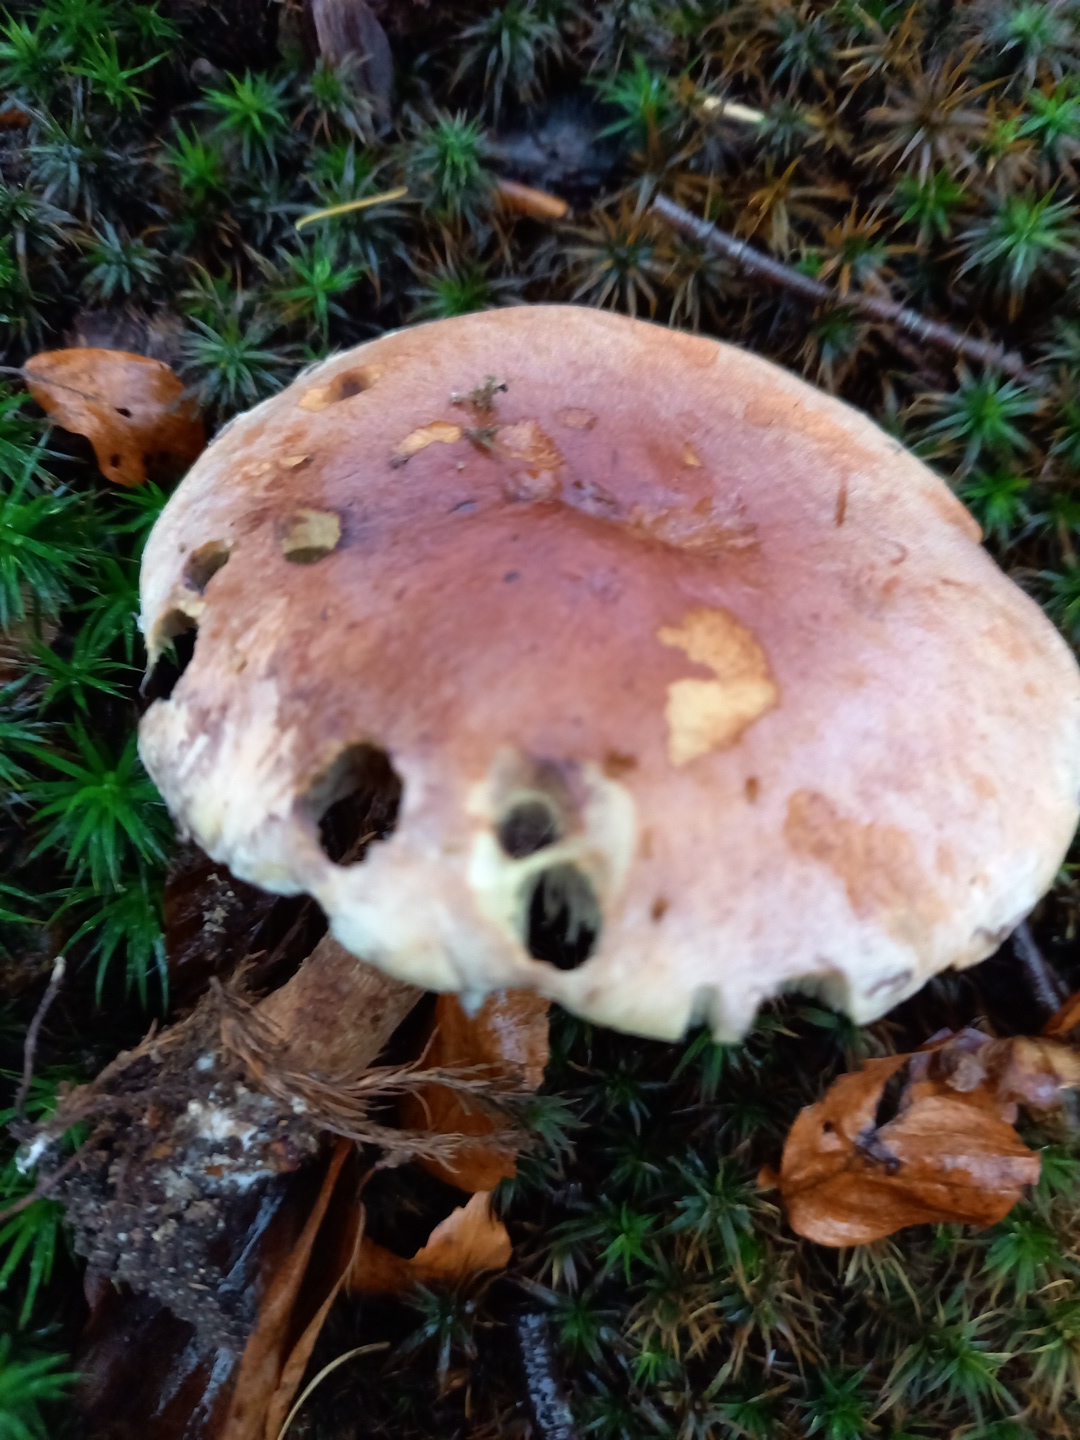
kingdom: Fungi
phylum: Basidiomycota
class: Agaricomycetes
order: Agaricales
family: Strophariaceae
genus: Hypholoma
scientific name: Hypholoma lateritium
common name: teglrød svovlhat
